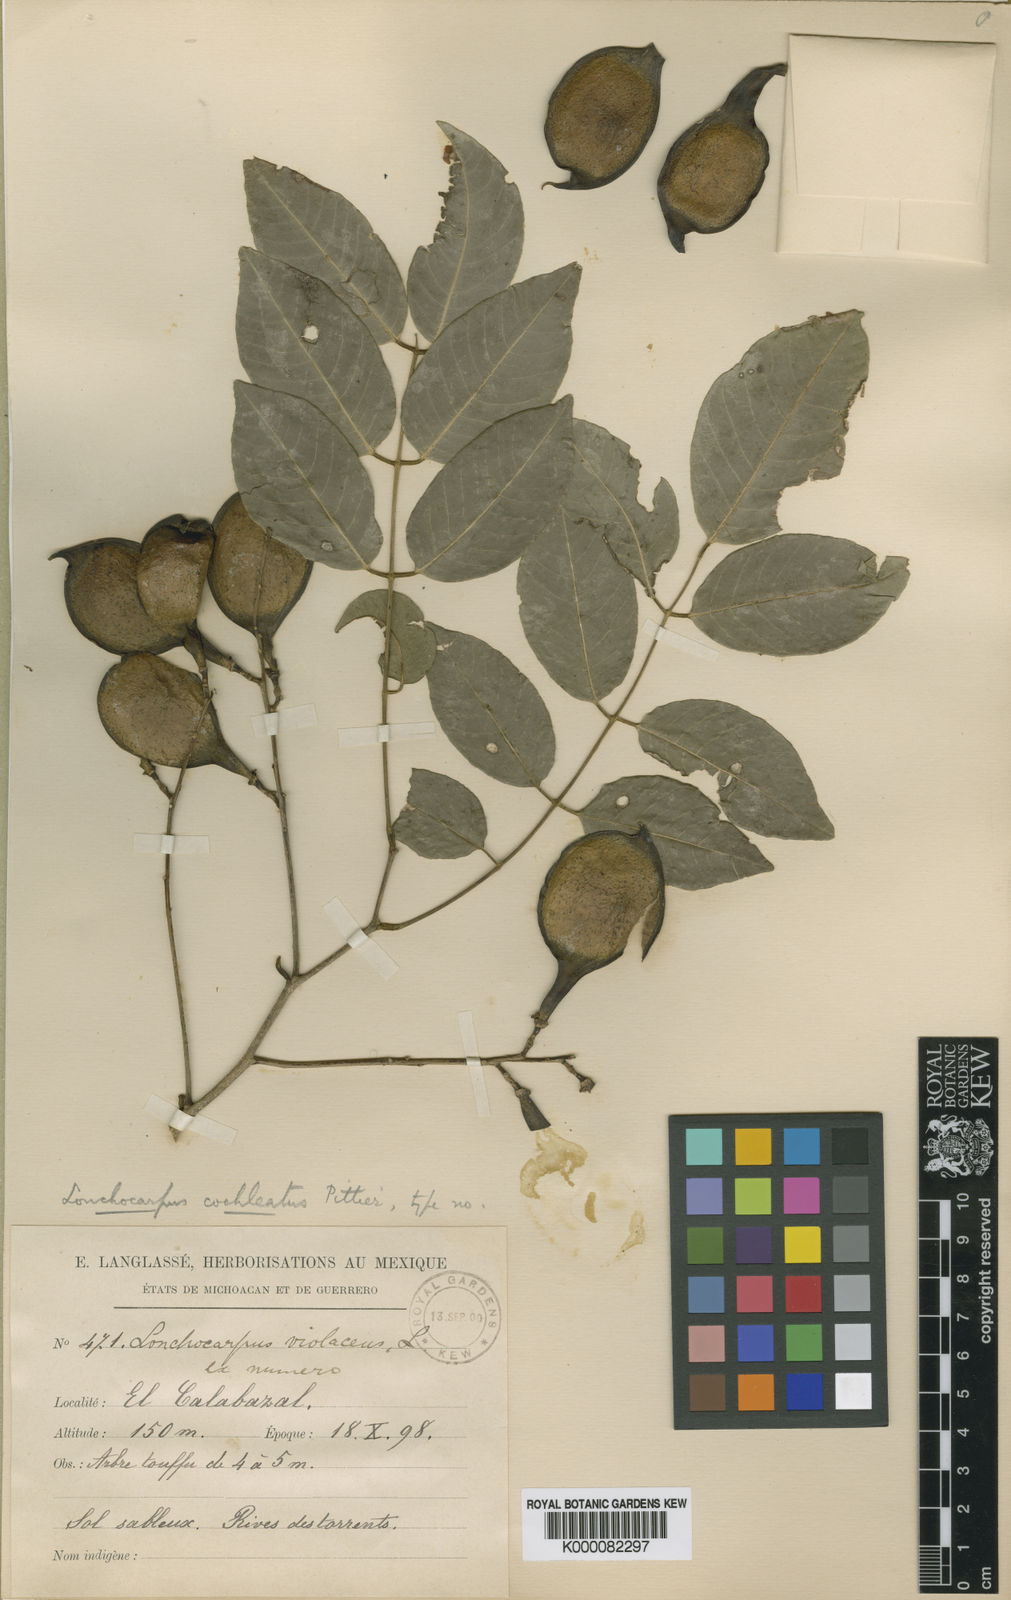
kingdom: Plantae
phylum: Tracheophyta
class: Magnoliopsida
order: Fabales
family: Fabaceae
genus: Lonchocarpus
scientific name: Lonchocarpus cochleatus
